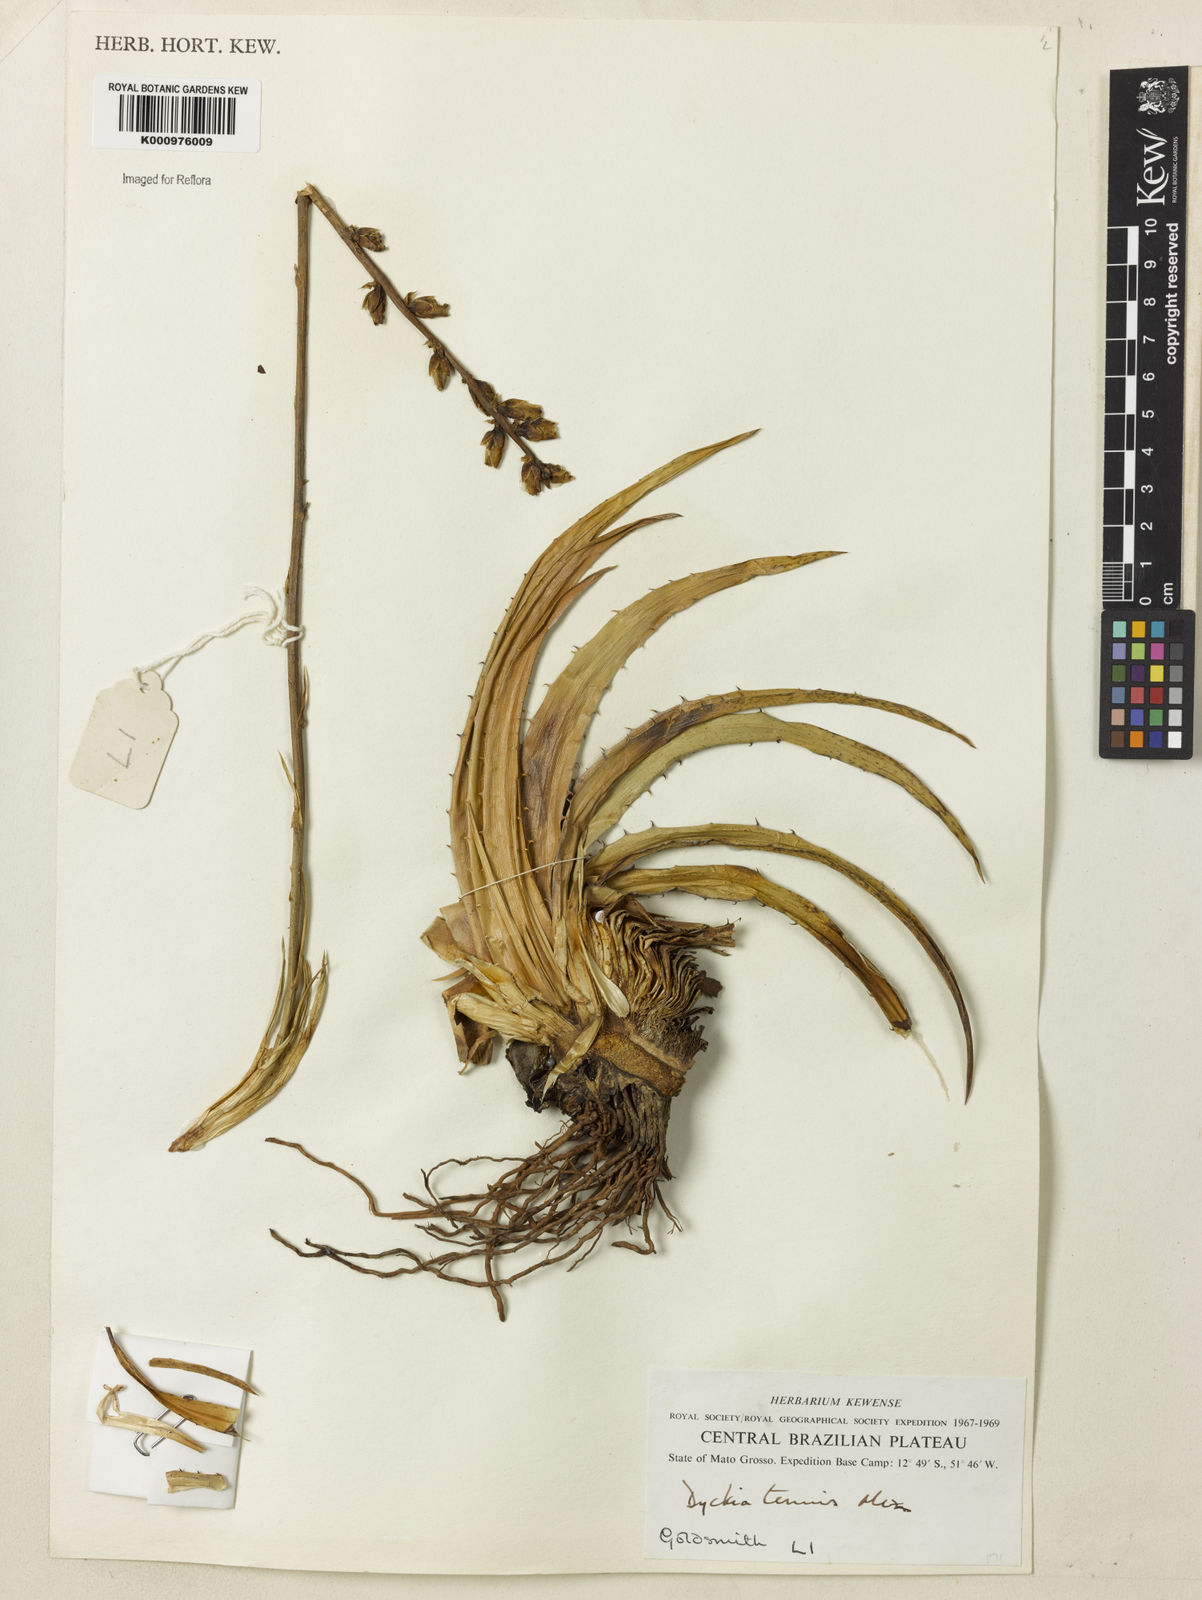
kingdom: Plantae
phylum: Tracheophyta
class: Liliopsida
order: Poales
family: Bromeliaceae
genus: Dyckia
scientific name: Dyckia tenuis
